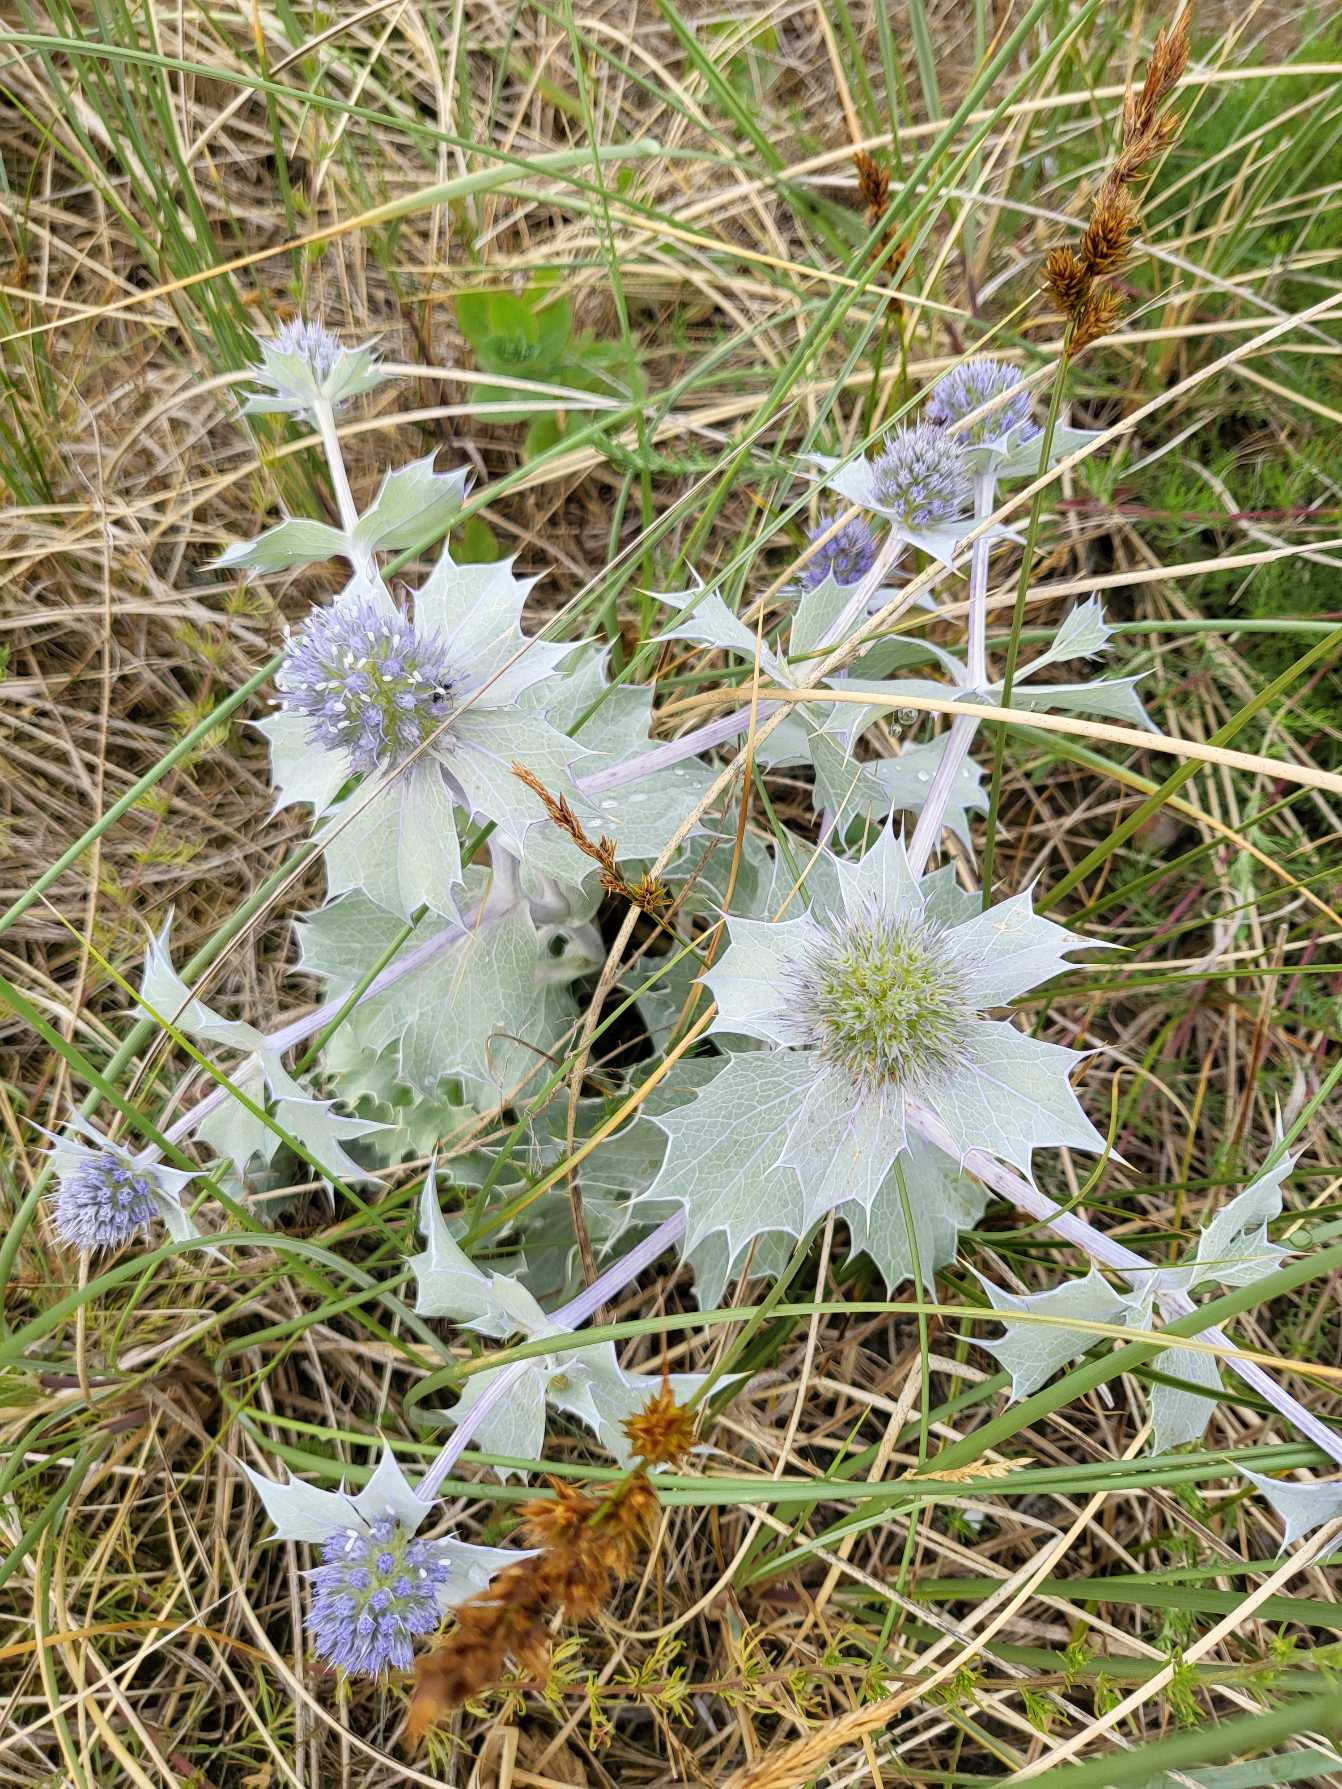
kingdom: Plantae
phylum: Tracheophyta
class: Magnoliopsida
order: Apiales
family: Apiaceae
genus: Eryngium
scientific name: Eryngium maritimum
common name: Strand-mandstro
